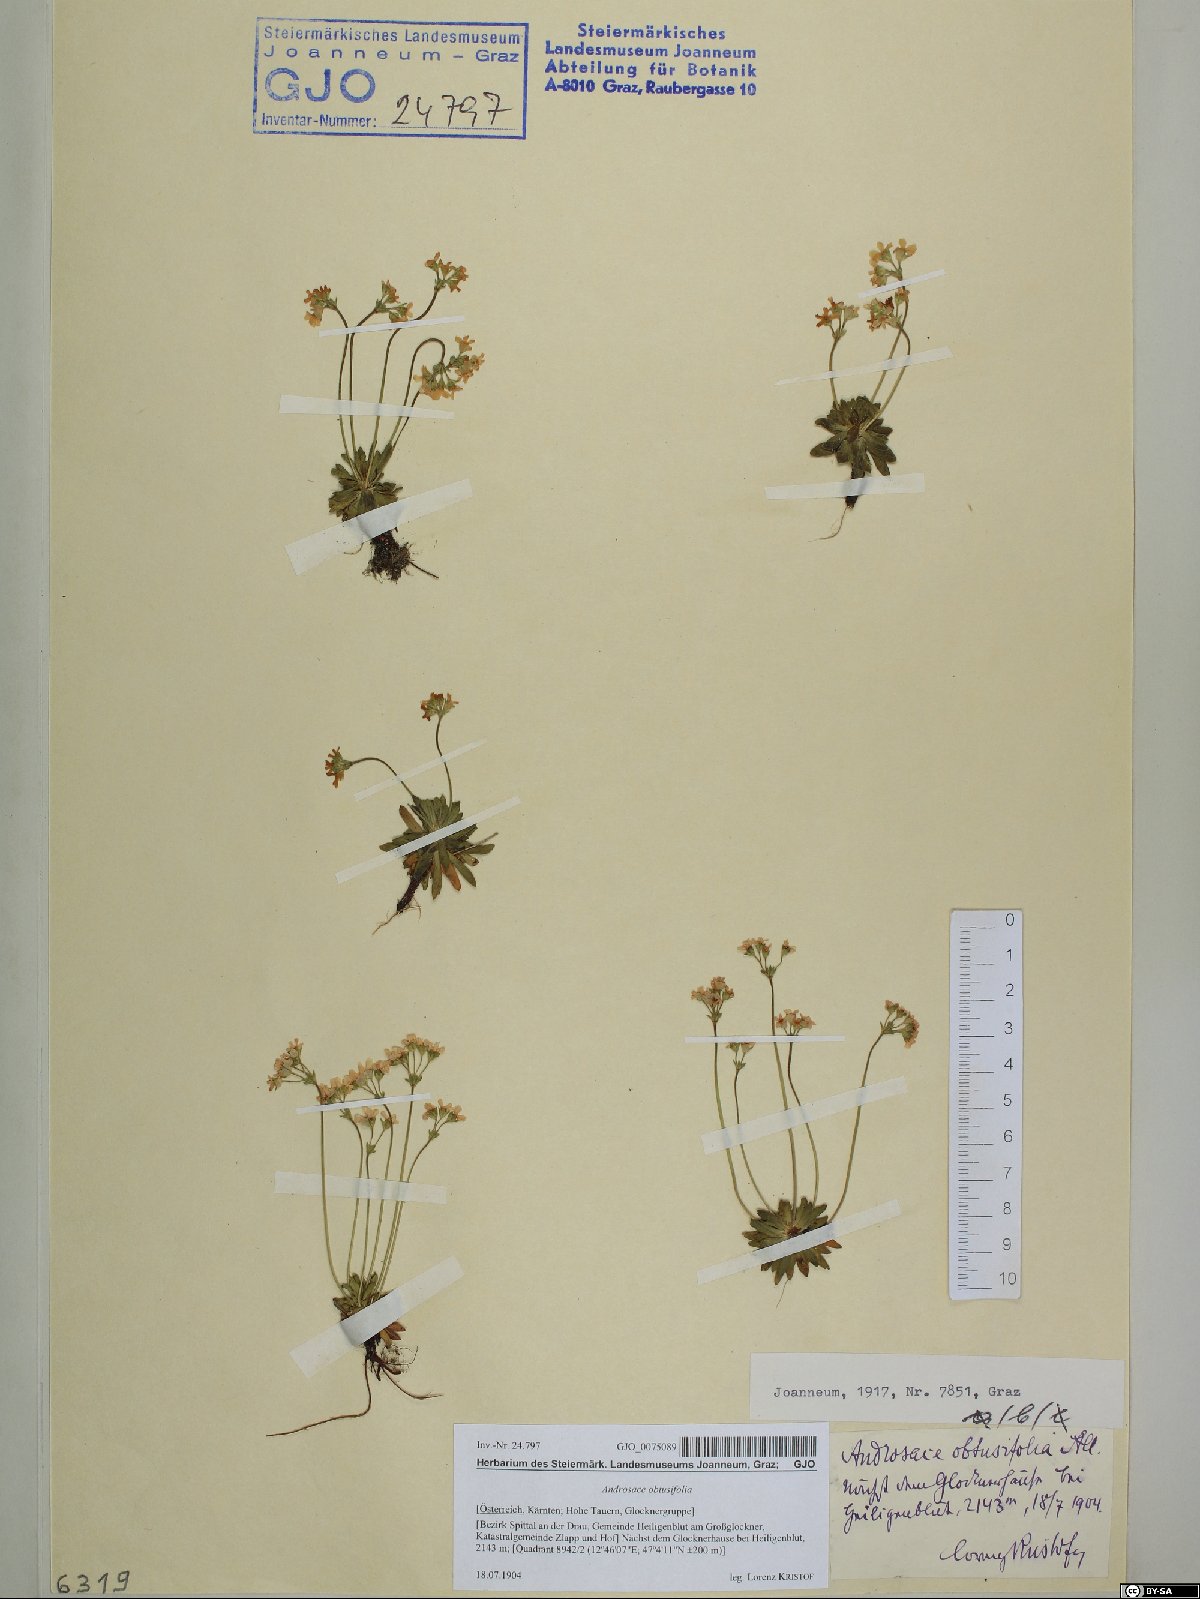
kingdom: Plantae
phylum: Tracheophyta
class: Magnoliopsida
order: Ericales
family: Primulaceae
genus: Androsace
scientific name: Androsace obtusifolia
